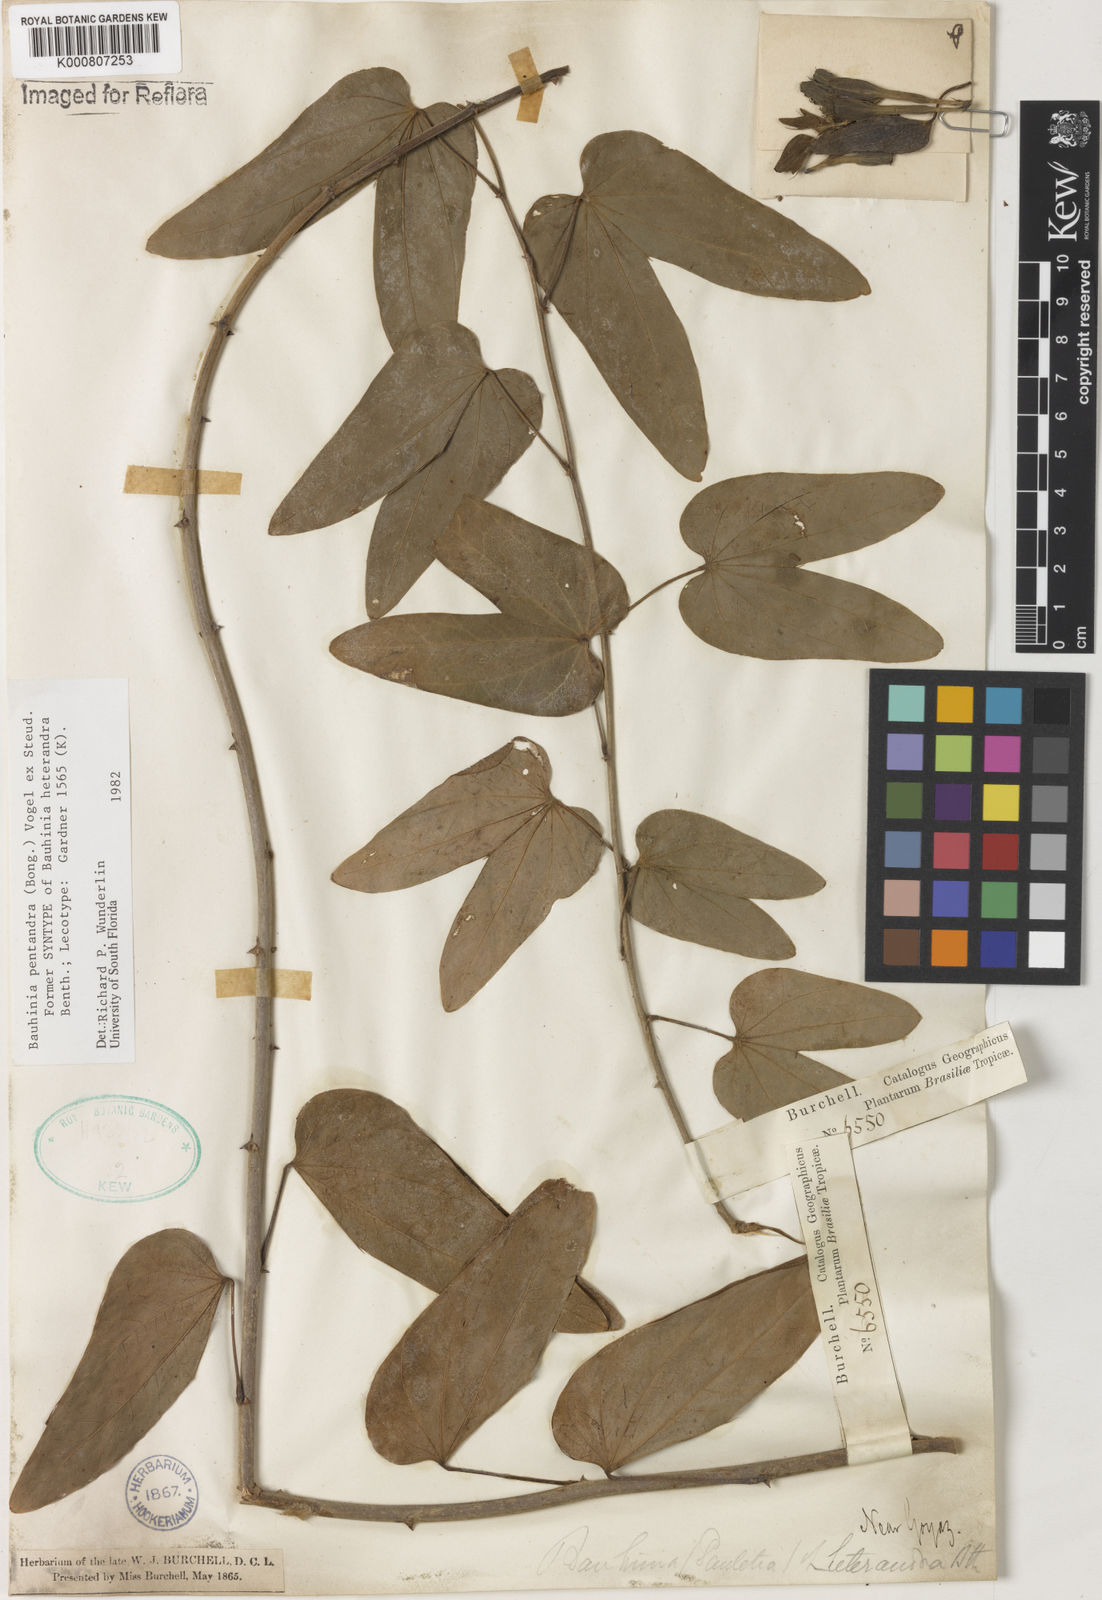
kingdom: Plantae
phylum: Tracheophyta
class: Magnoliopsida
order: Fabales
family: Fabaceae
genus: Bauhinia
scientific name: Bauhinia
